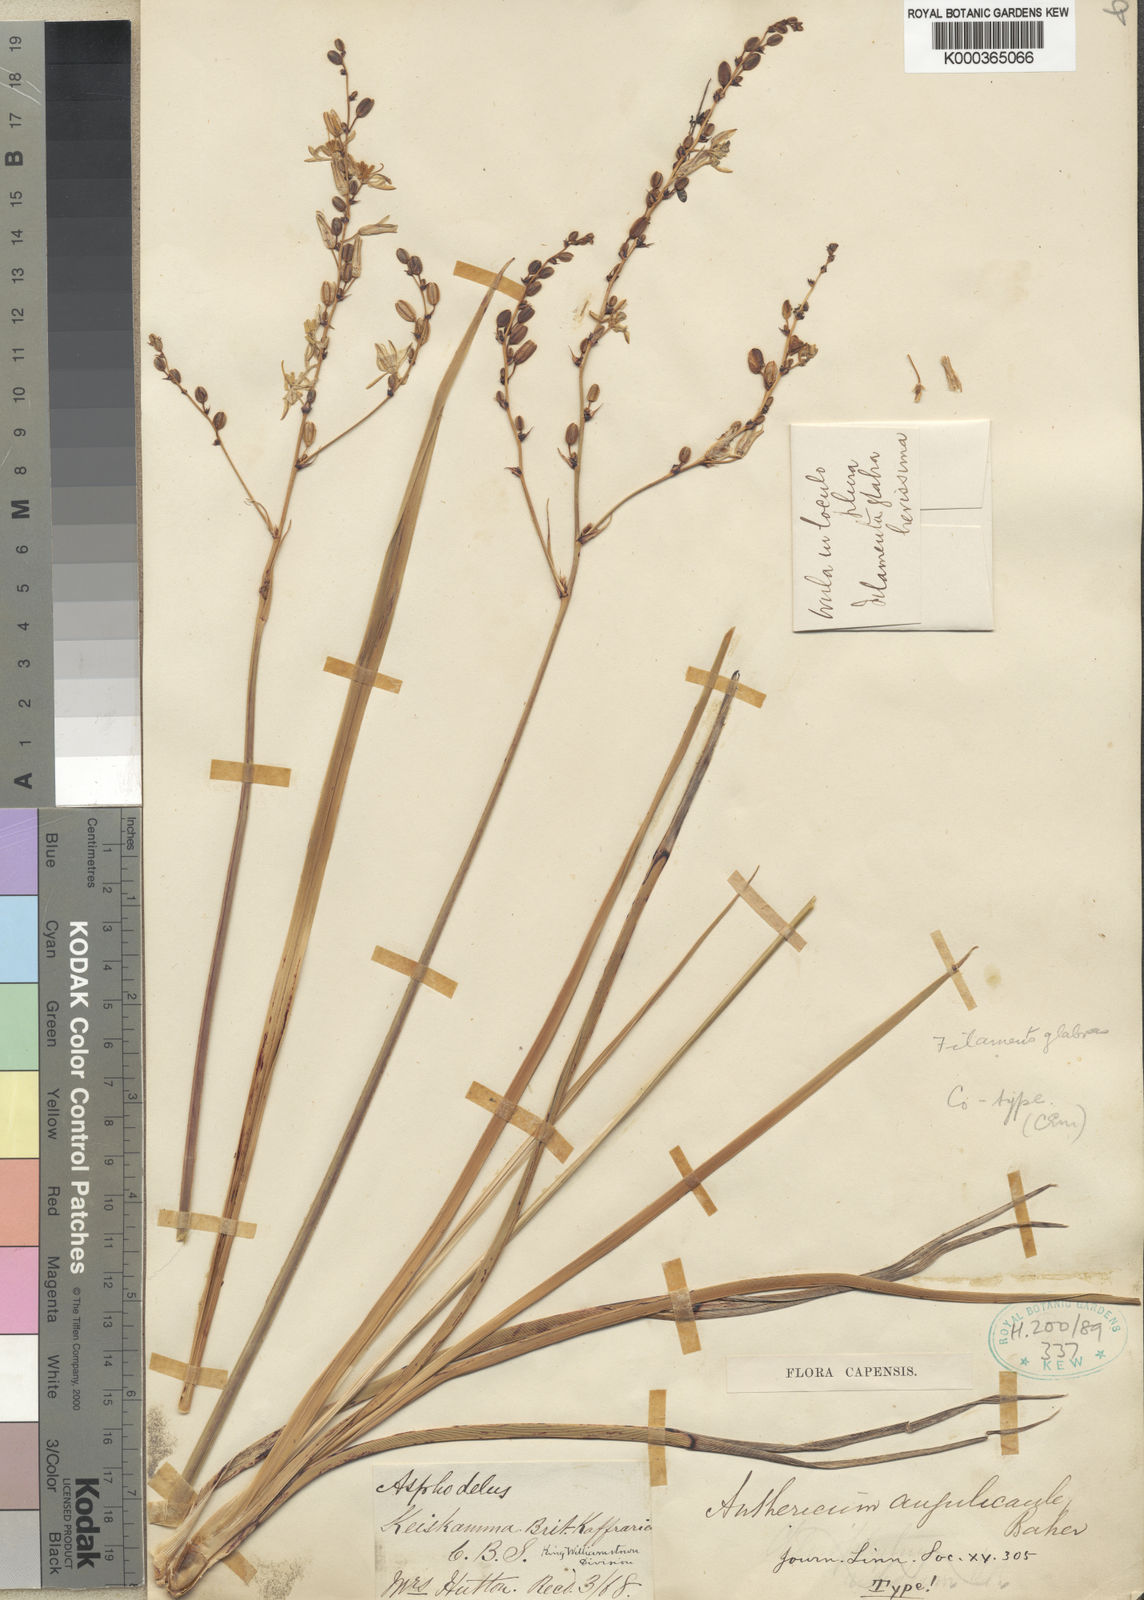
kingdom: Plantae
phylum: Tracheophyta
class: Liliopsida
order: Asparagales
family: Asparagaceae
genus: Chlorophytum
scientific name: Chlorophytum angulicaule
